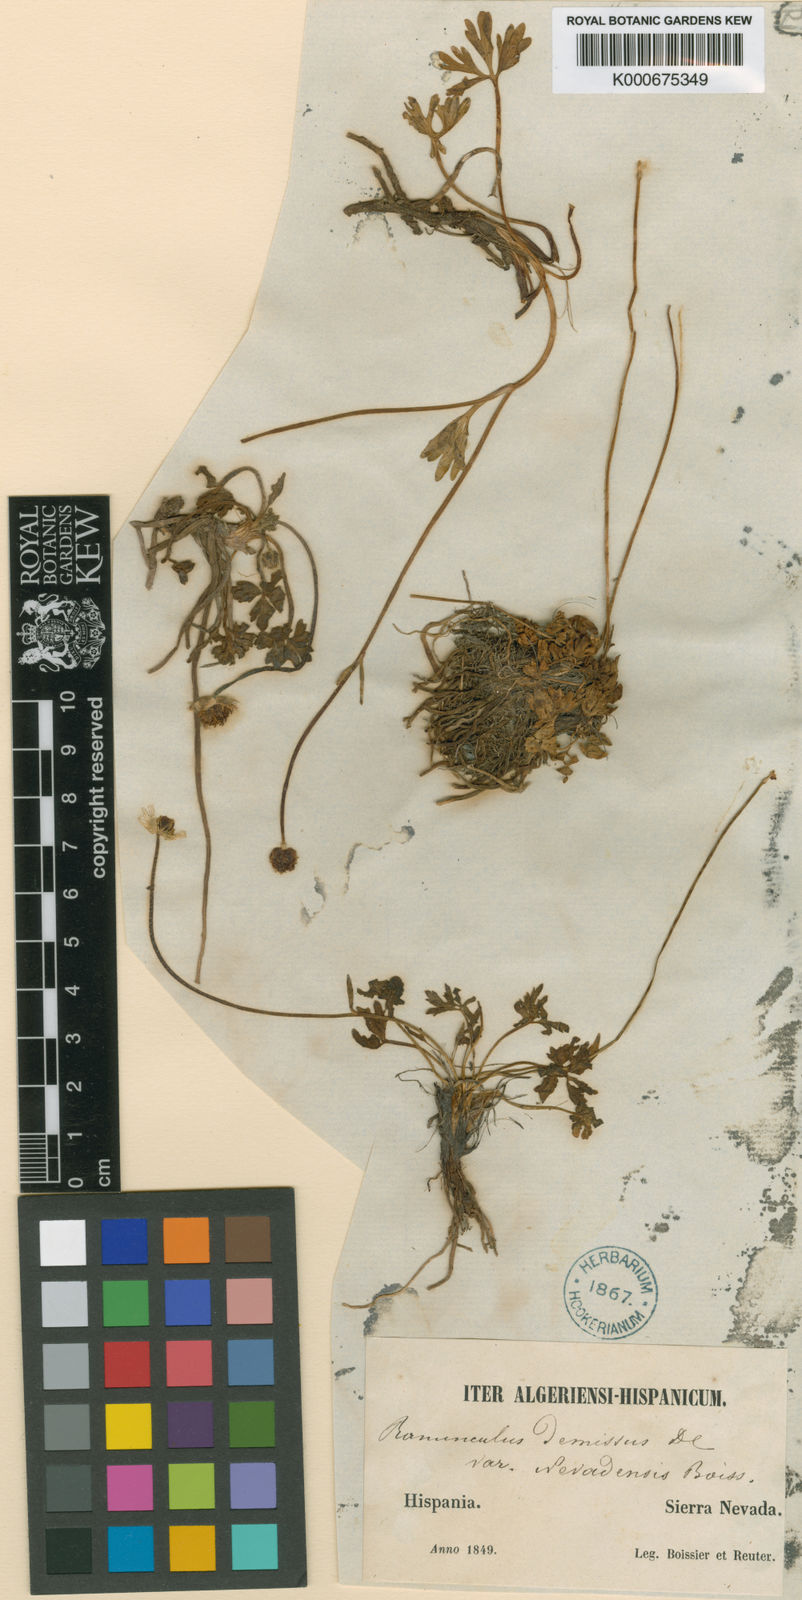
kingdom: Plantae
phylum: Tracheophyta
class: Magnoliopsida
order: Ranunculales
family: Ranunculaceae
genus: Ranunculus
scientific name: Ranunculus demissus
